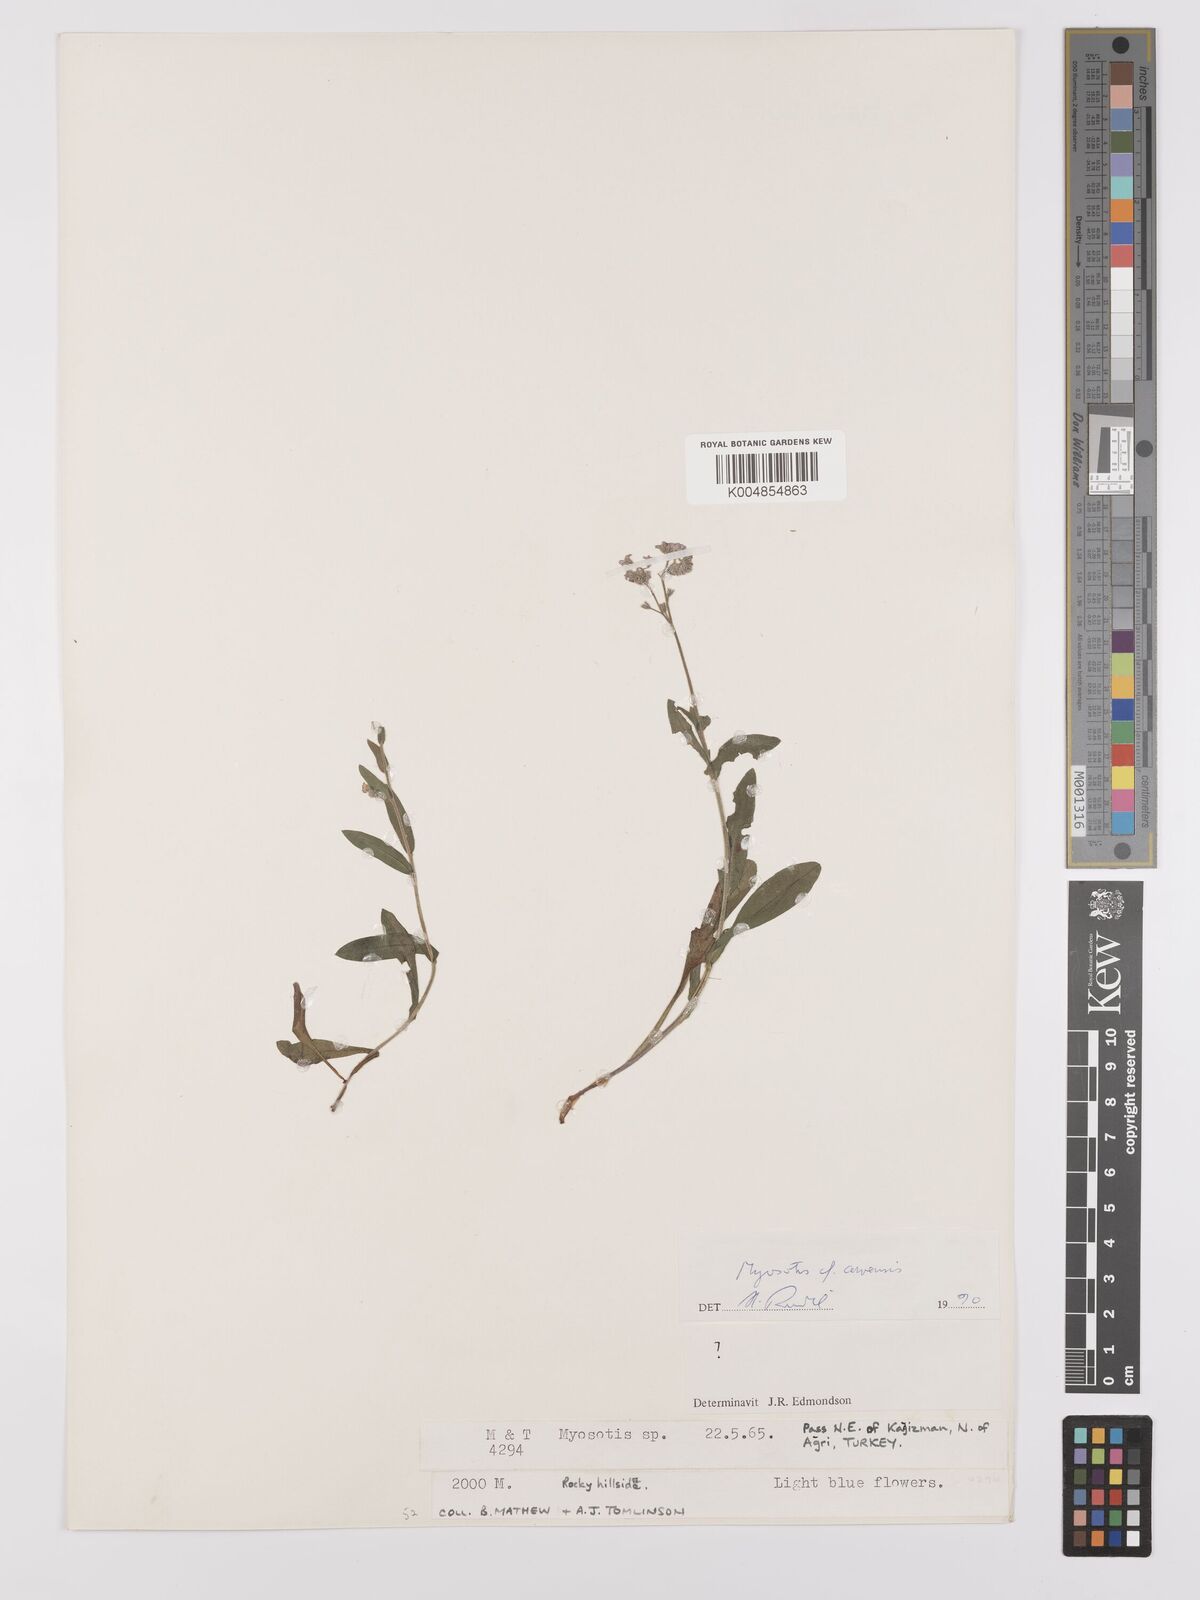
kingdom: Plantae
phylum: Tracheophyta
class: Magnoliopsida
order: Boraginales
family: Boraginaceae
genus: Myosotis
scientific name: Myosotis arvensis
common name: Field forget-me-not
